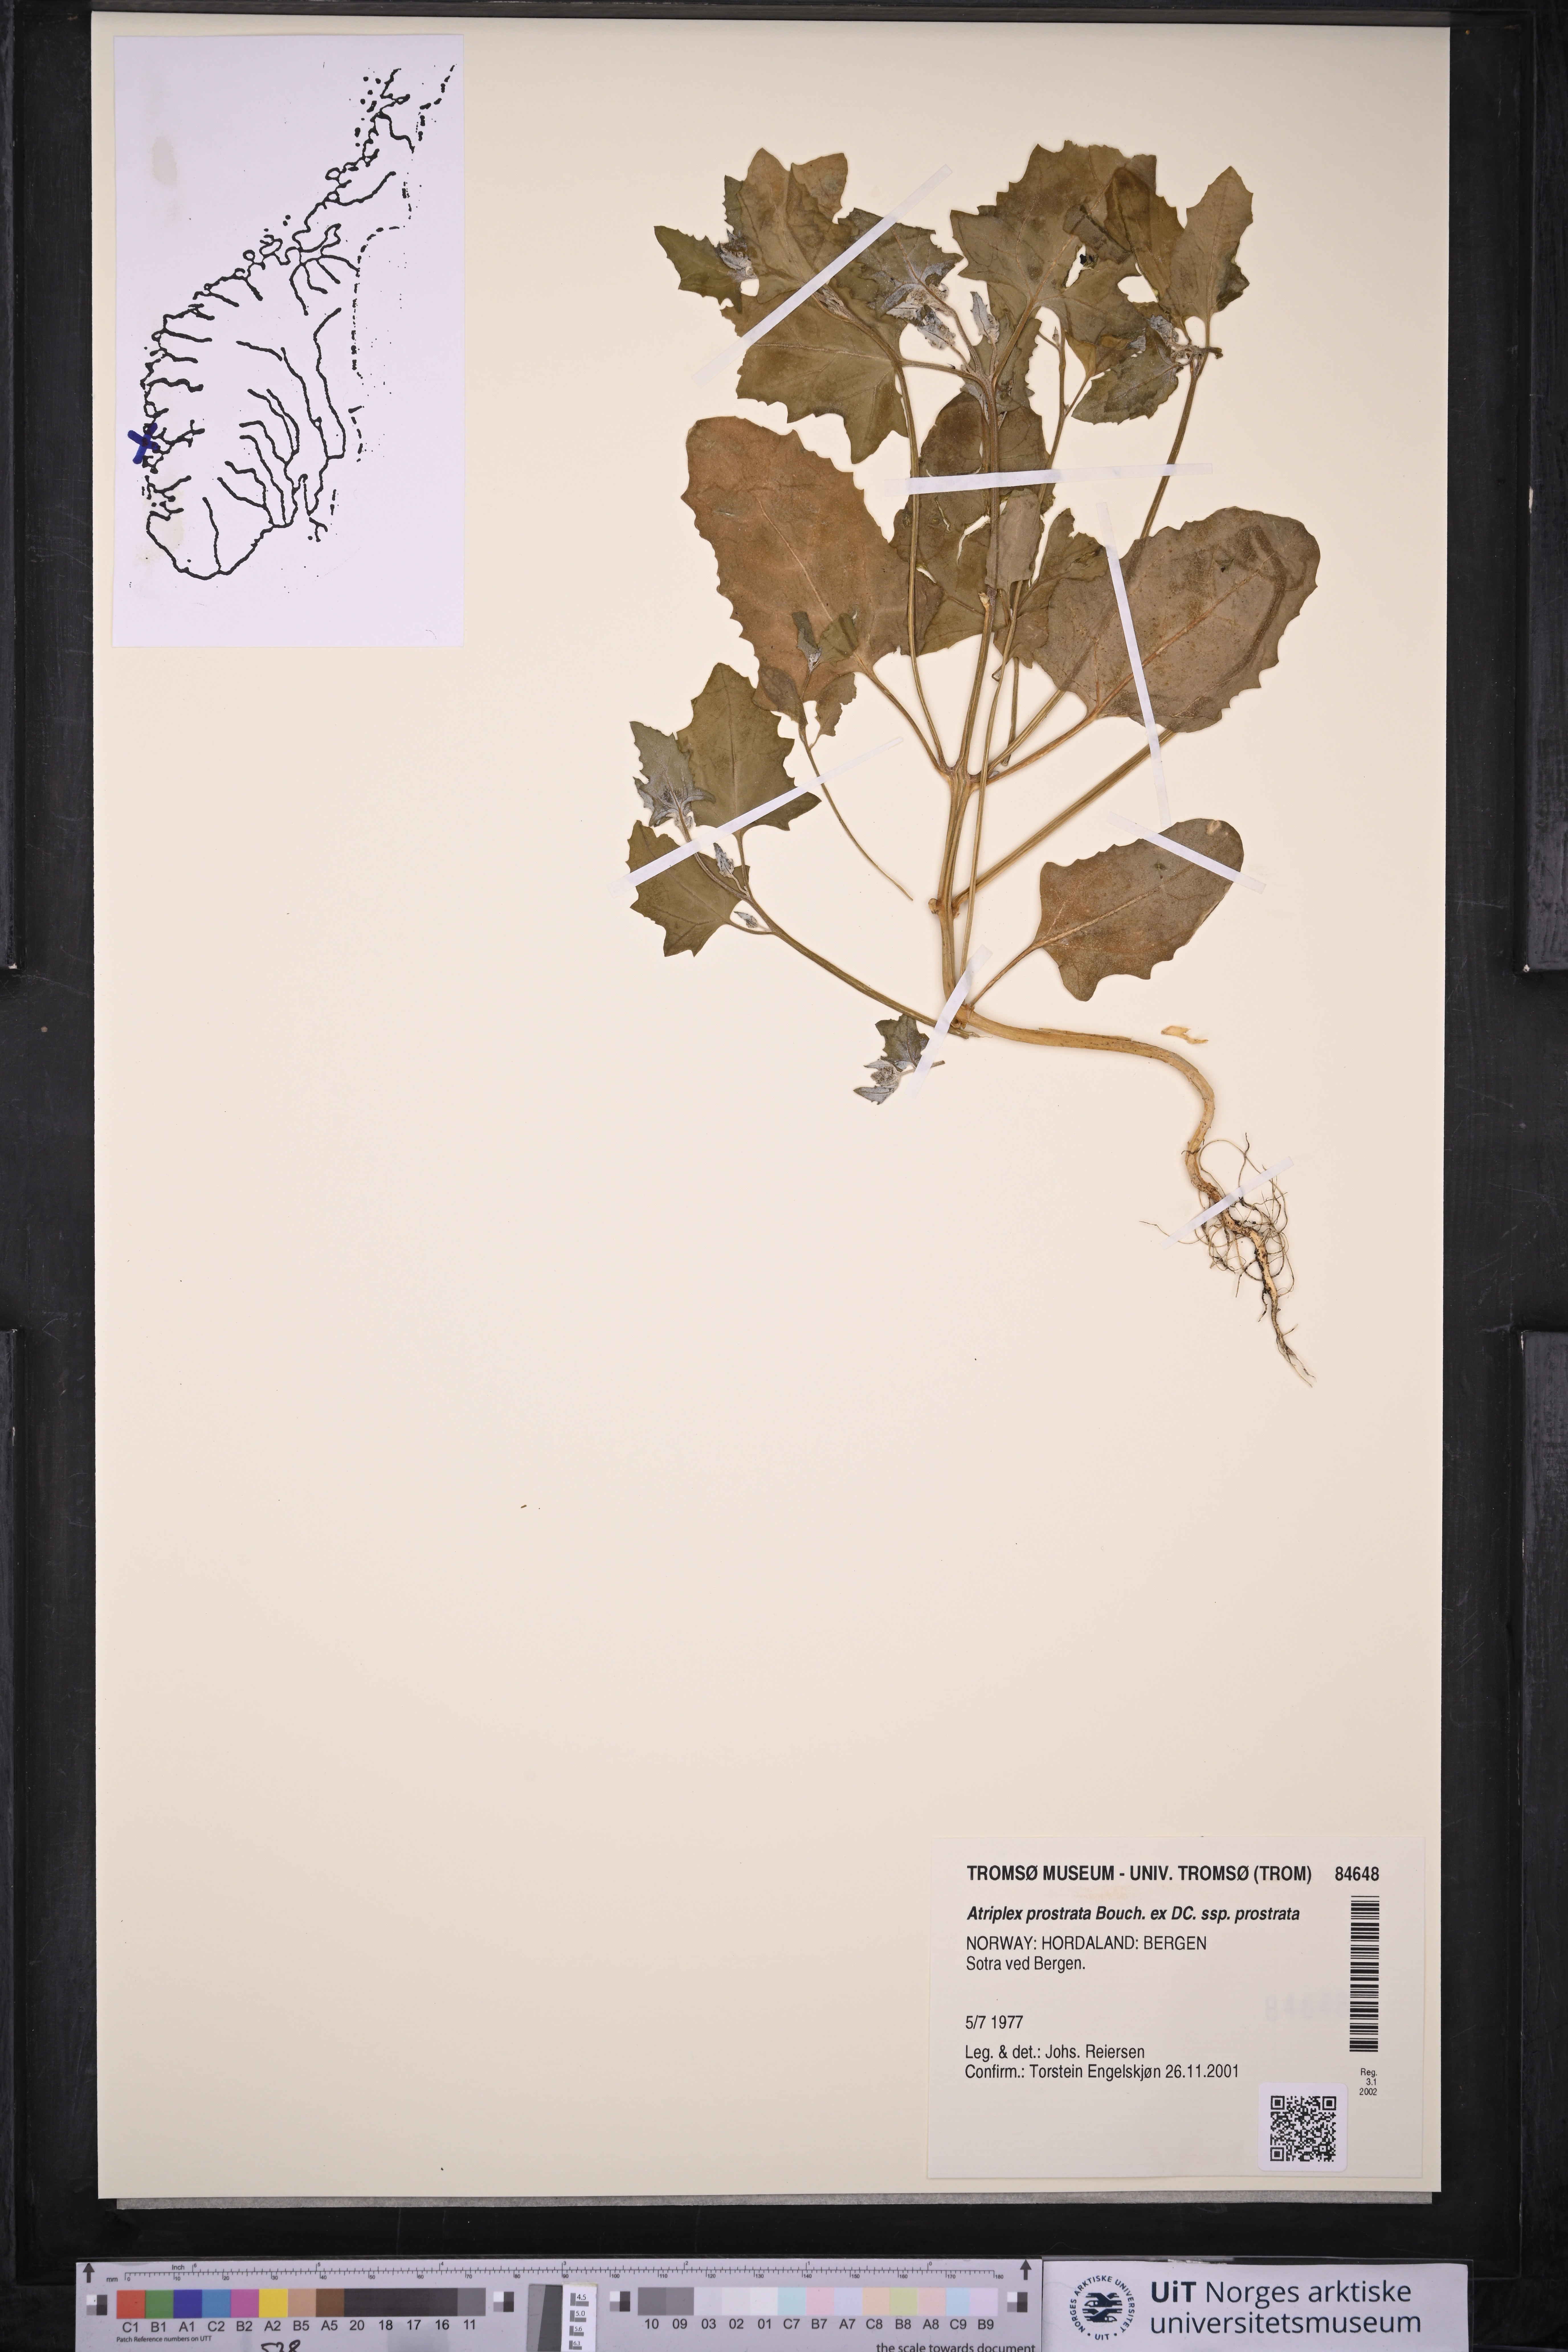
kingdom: Plantae
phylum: Tracheophyta
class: Magnoliopsida
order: Caryophyllales
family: Amaranthaceae
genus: Atriplex
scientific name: Atriplex prostrata
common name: Spear-leaved orache
